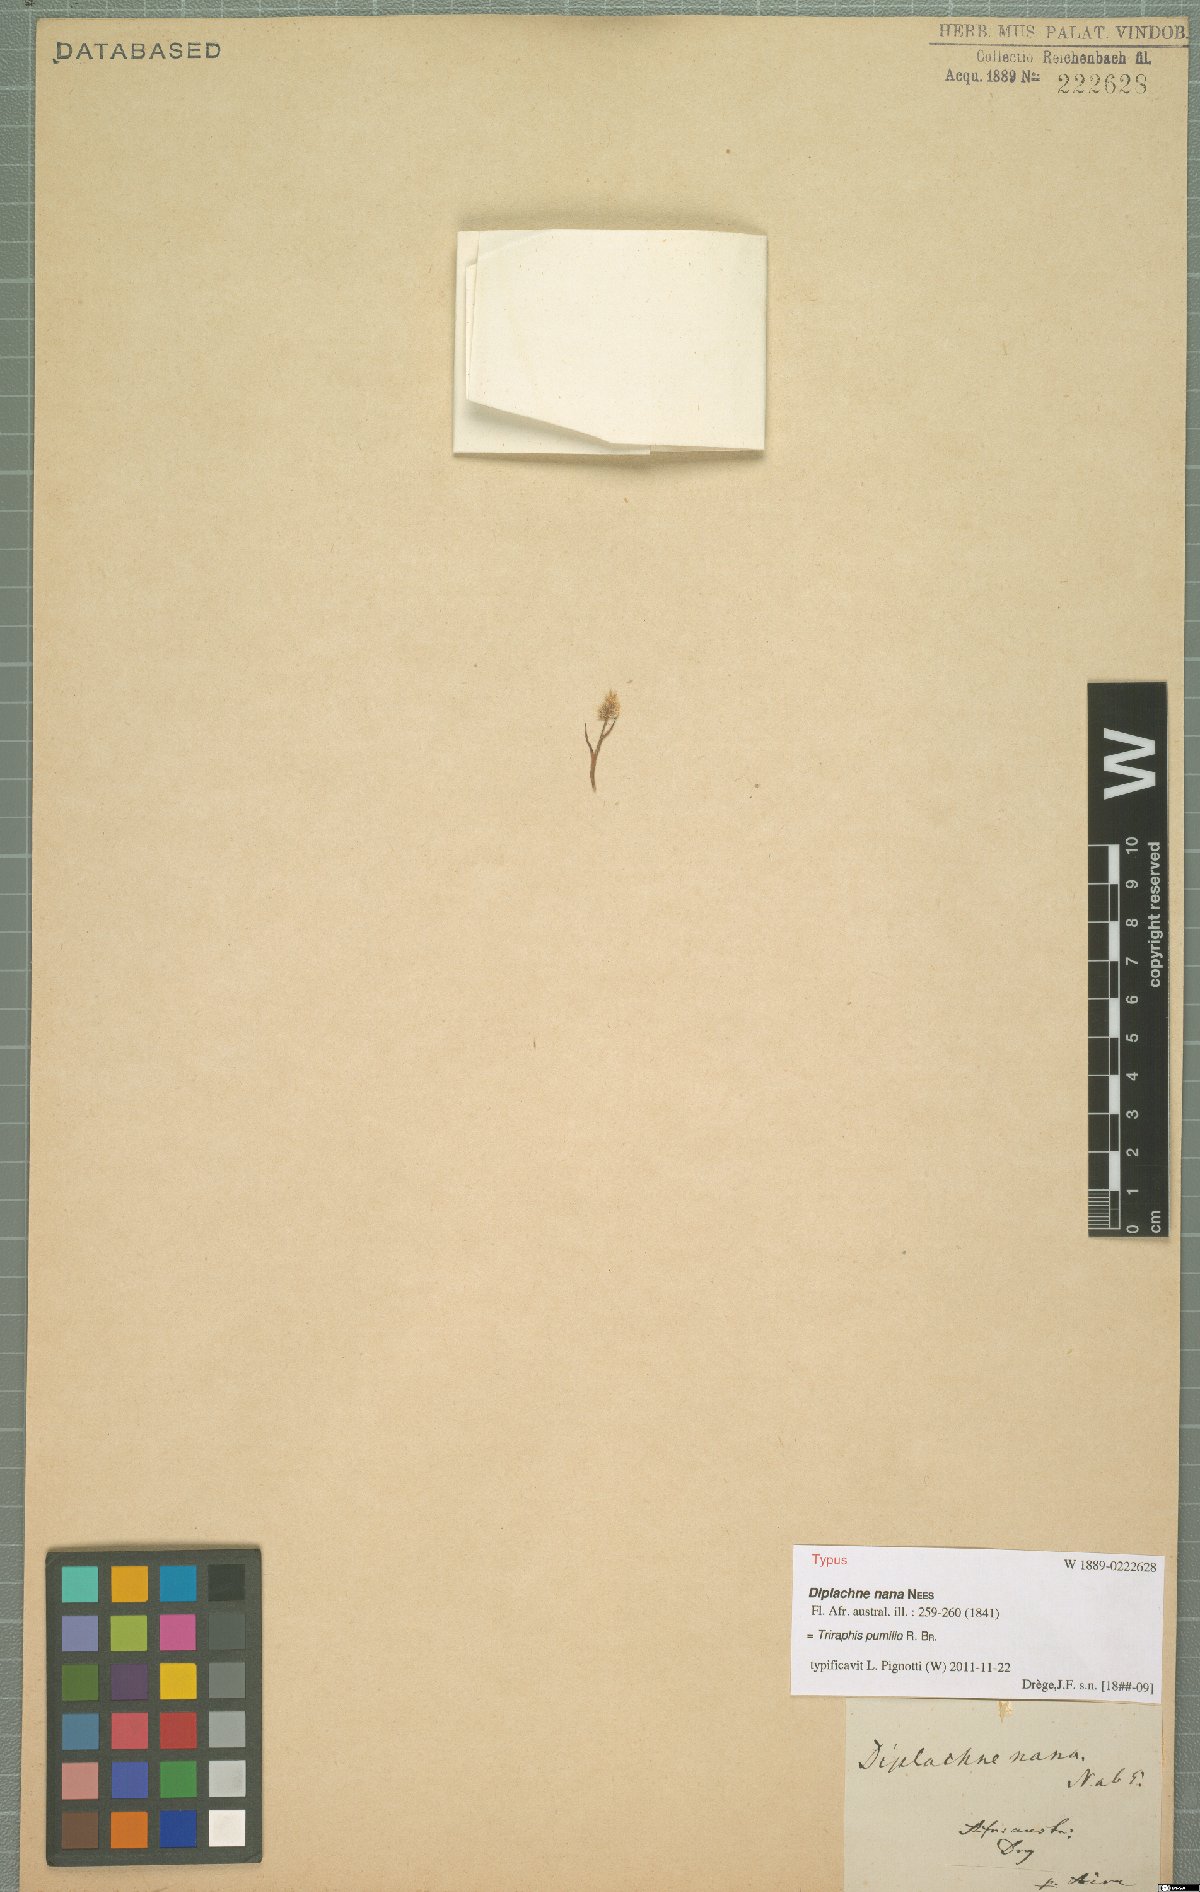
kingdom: Plantae
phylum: Tracheophyta
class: Liliopsida
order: Poales
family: Poaceae
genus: Triraphis
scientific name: Triraphis pumilio
